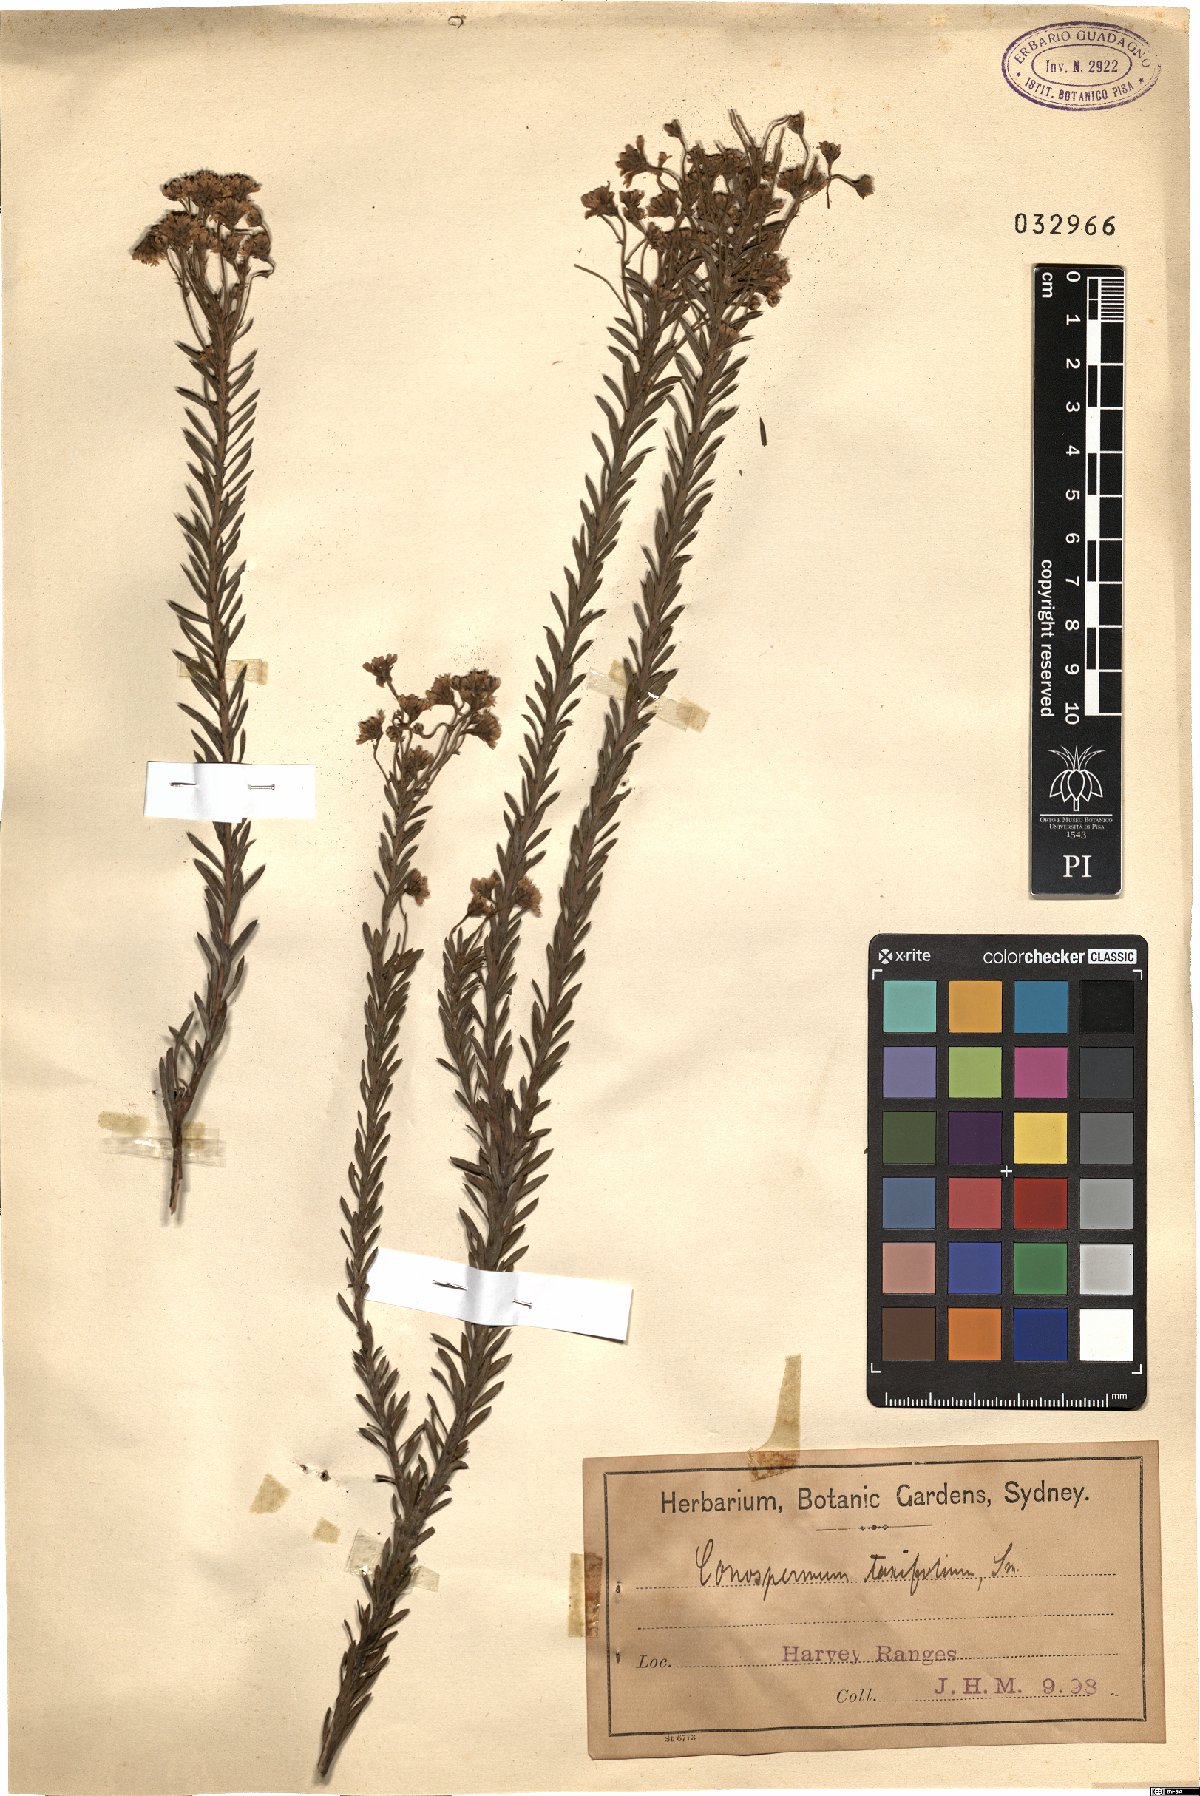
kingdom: Plantae
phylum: Tracheophyta
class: Magnoliopsida
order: Proteales
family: Proteaceae
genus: Conospermum
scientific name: Conospermum tenuifolium
